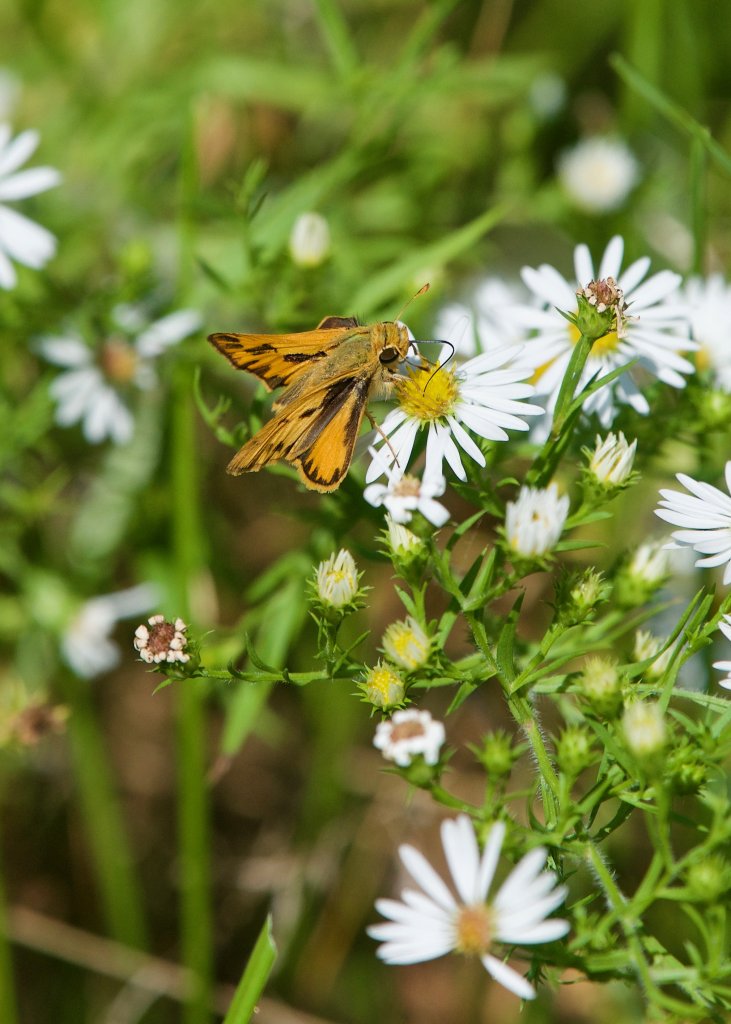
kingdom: Animalia
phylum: Arthropoda
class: Insecta
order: Lepidoptera
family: Hesperiidae
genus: Hylephila
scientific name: Hylephila phyleus
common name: Fiery Skipper
